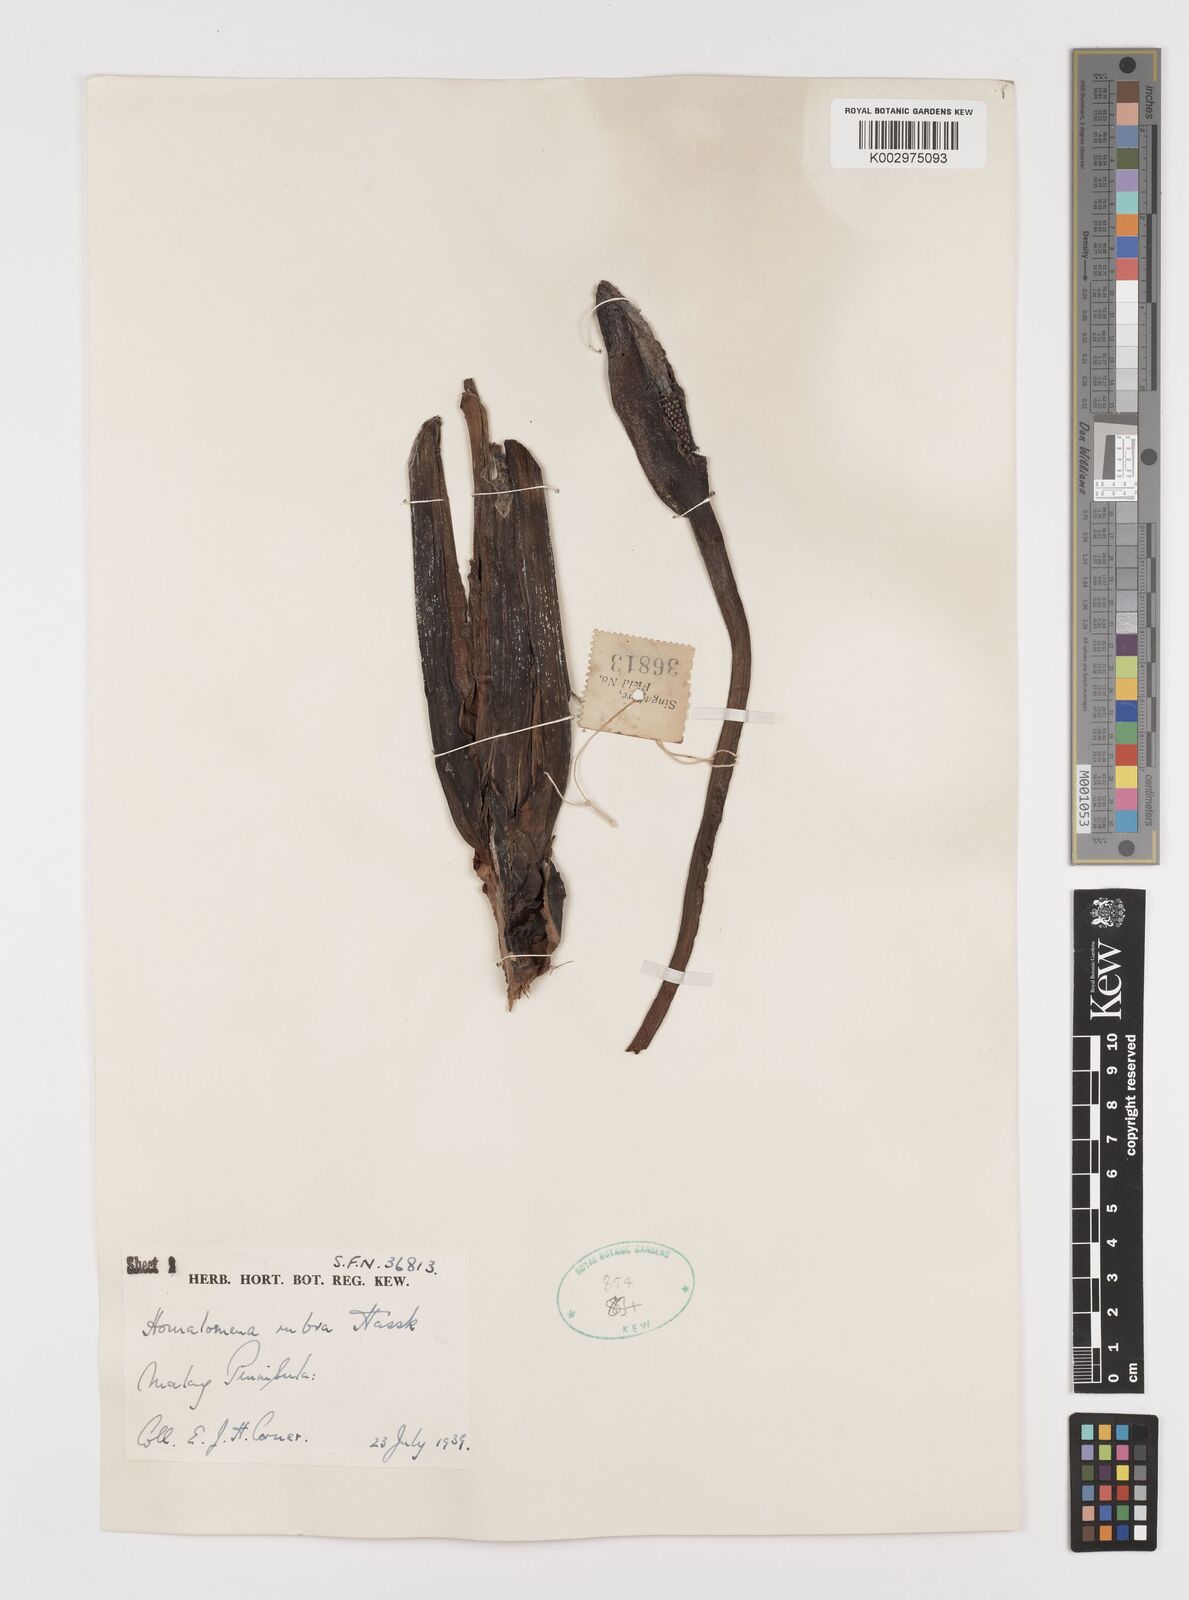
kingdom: Plantae
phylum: Tracheophyta
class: Liliopsida
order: Alismatales
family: Araceae
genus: Homalomena
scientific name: Homalomena pendula
